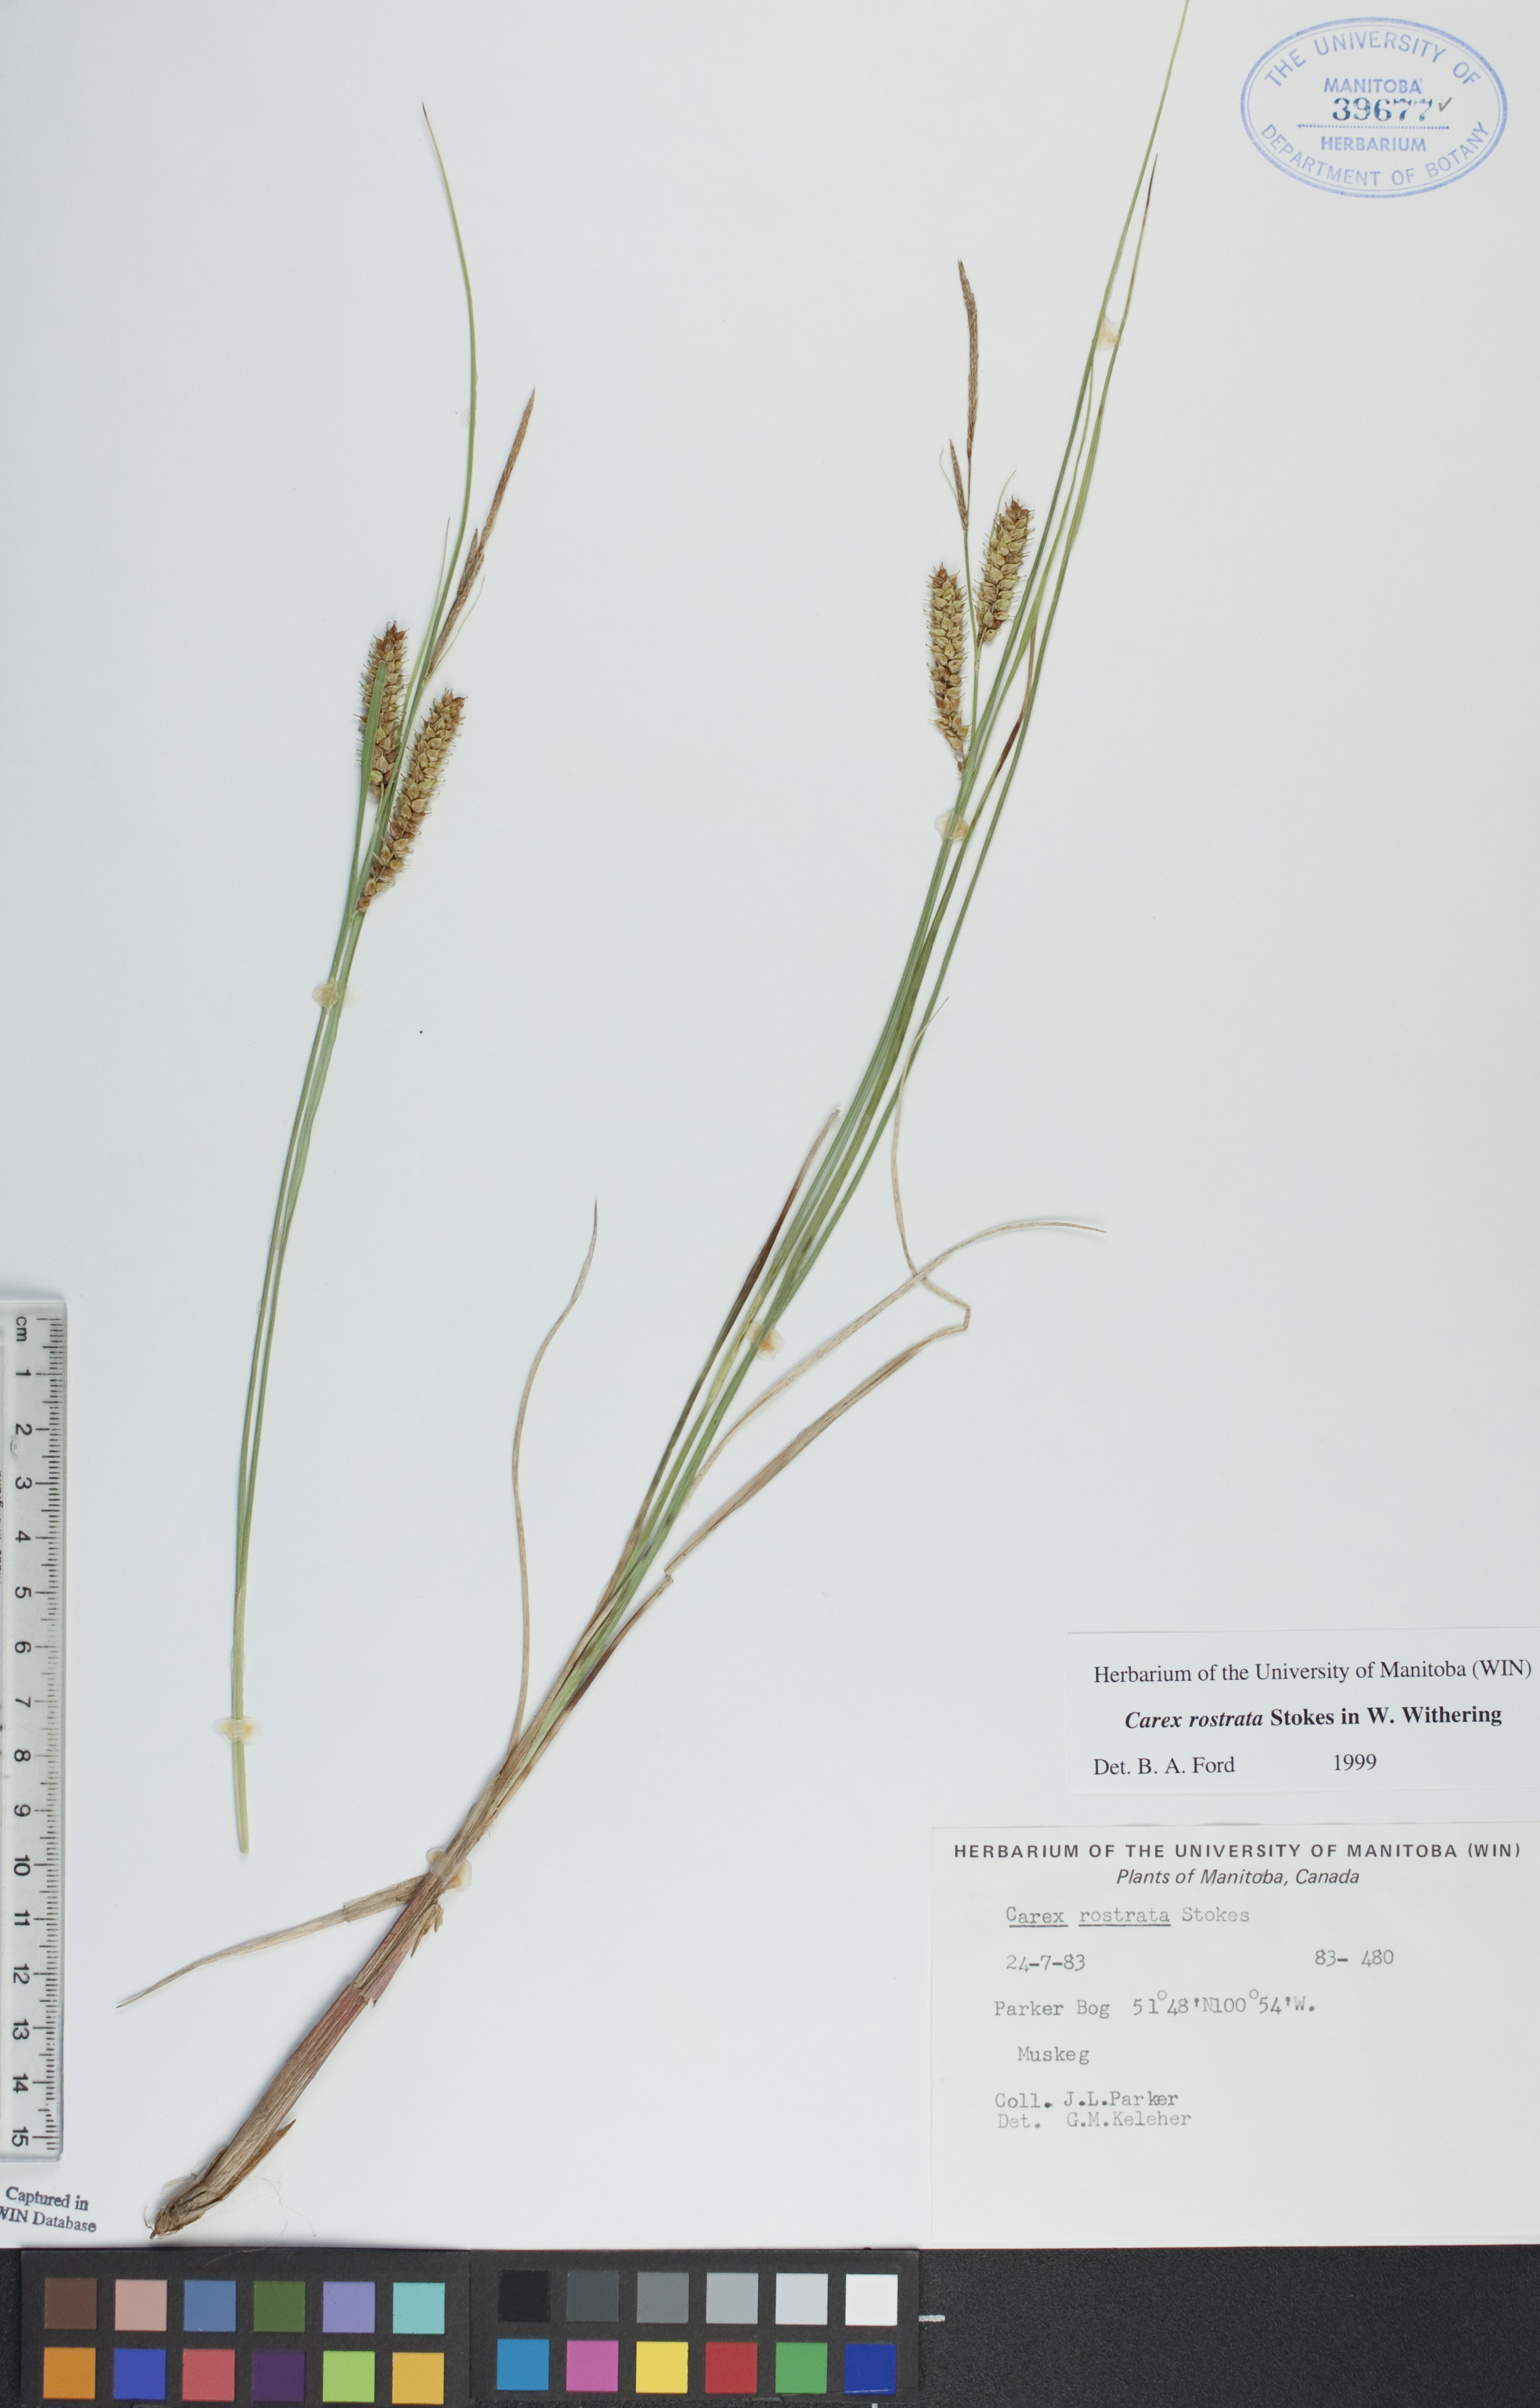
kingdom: Plantae
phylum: Tracheophyta
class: Liliopsida
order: Poales
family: Cyperaceae
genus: Carex
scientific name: Carex rostrata
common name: Bottle sedge
